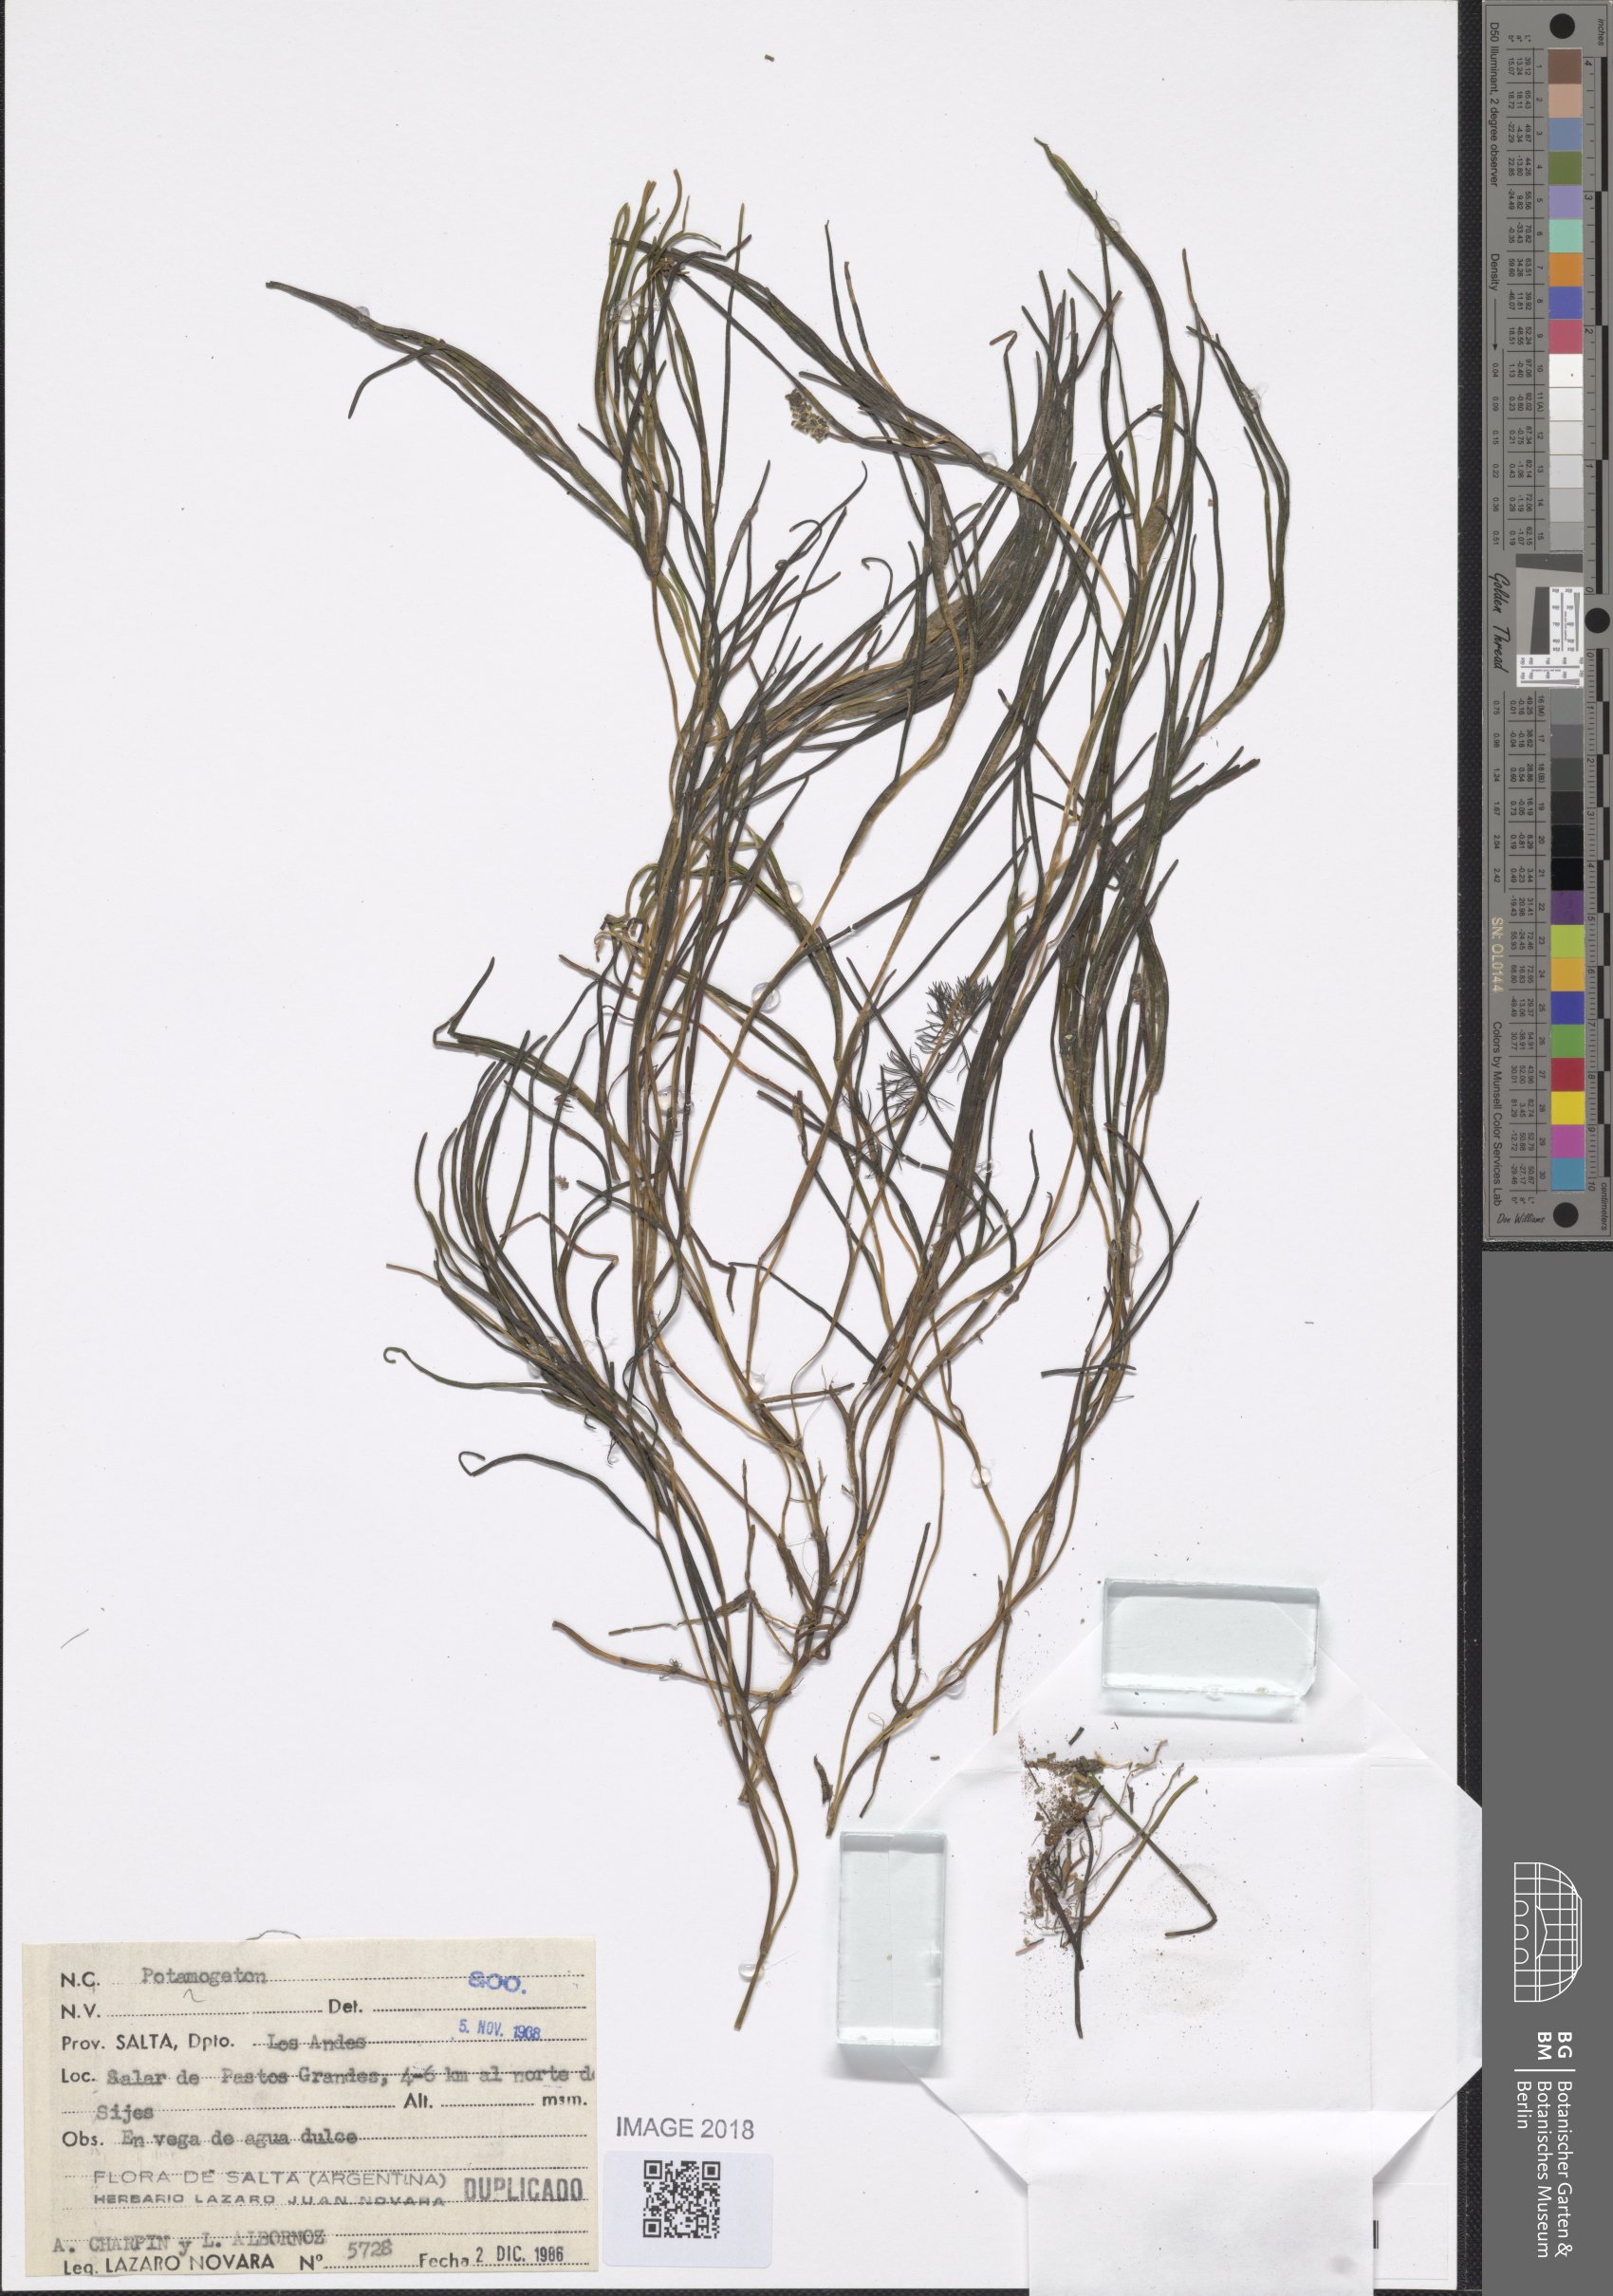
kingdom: Plantae
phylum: Tracheophyta
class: Liliopsida
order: Alismatales
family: Potamogetonaceae
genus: Stuckenia
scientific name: Stuckenia striata
